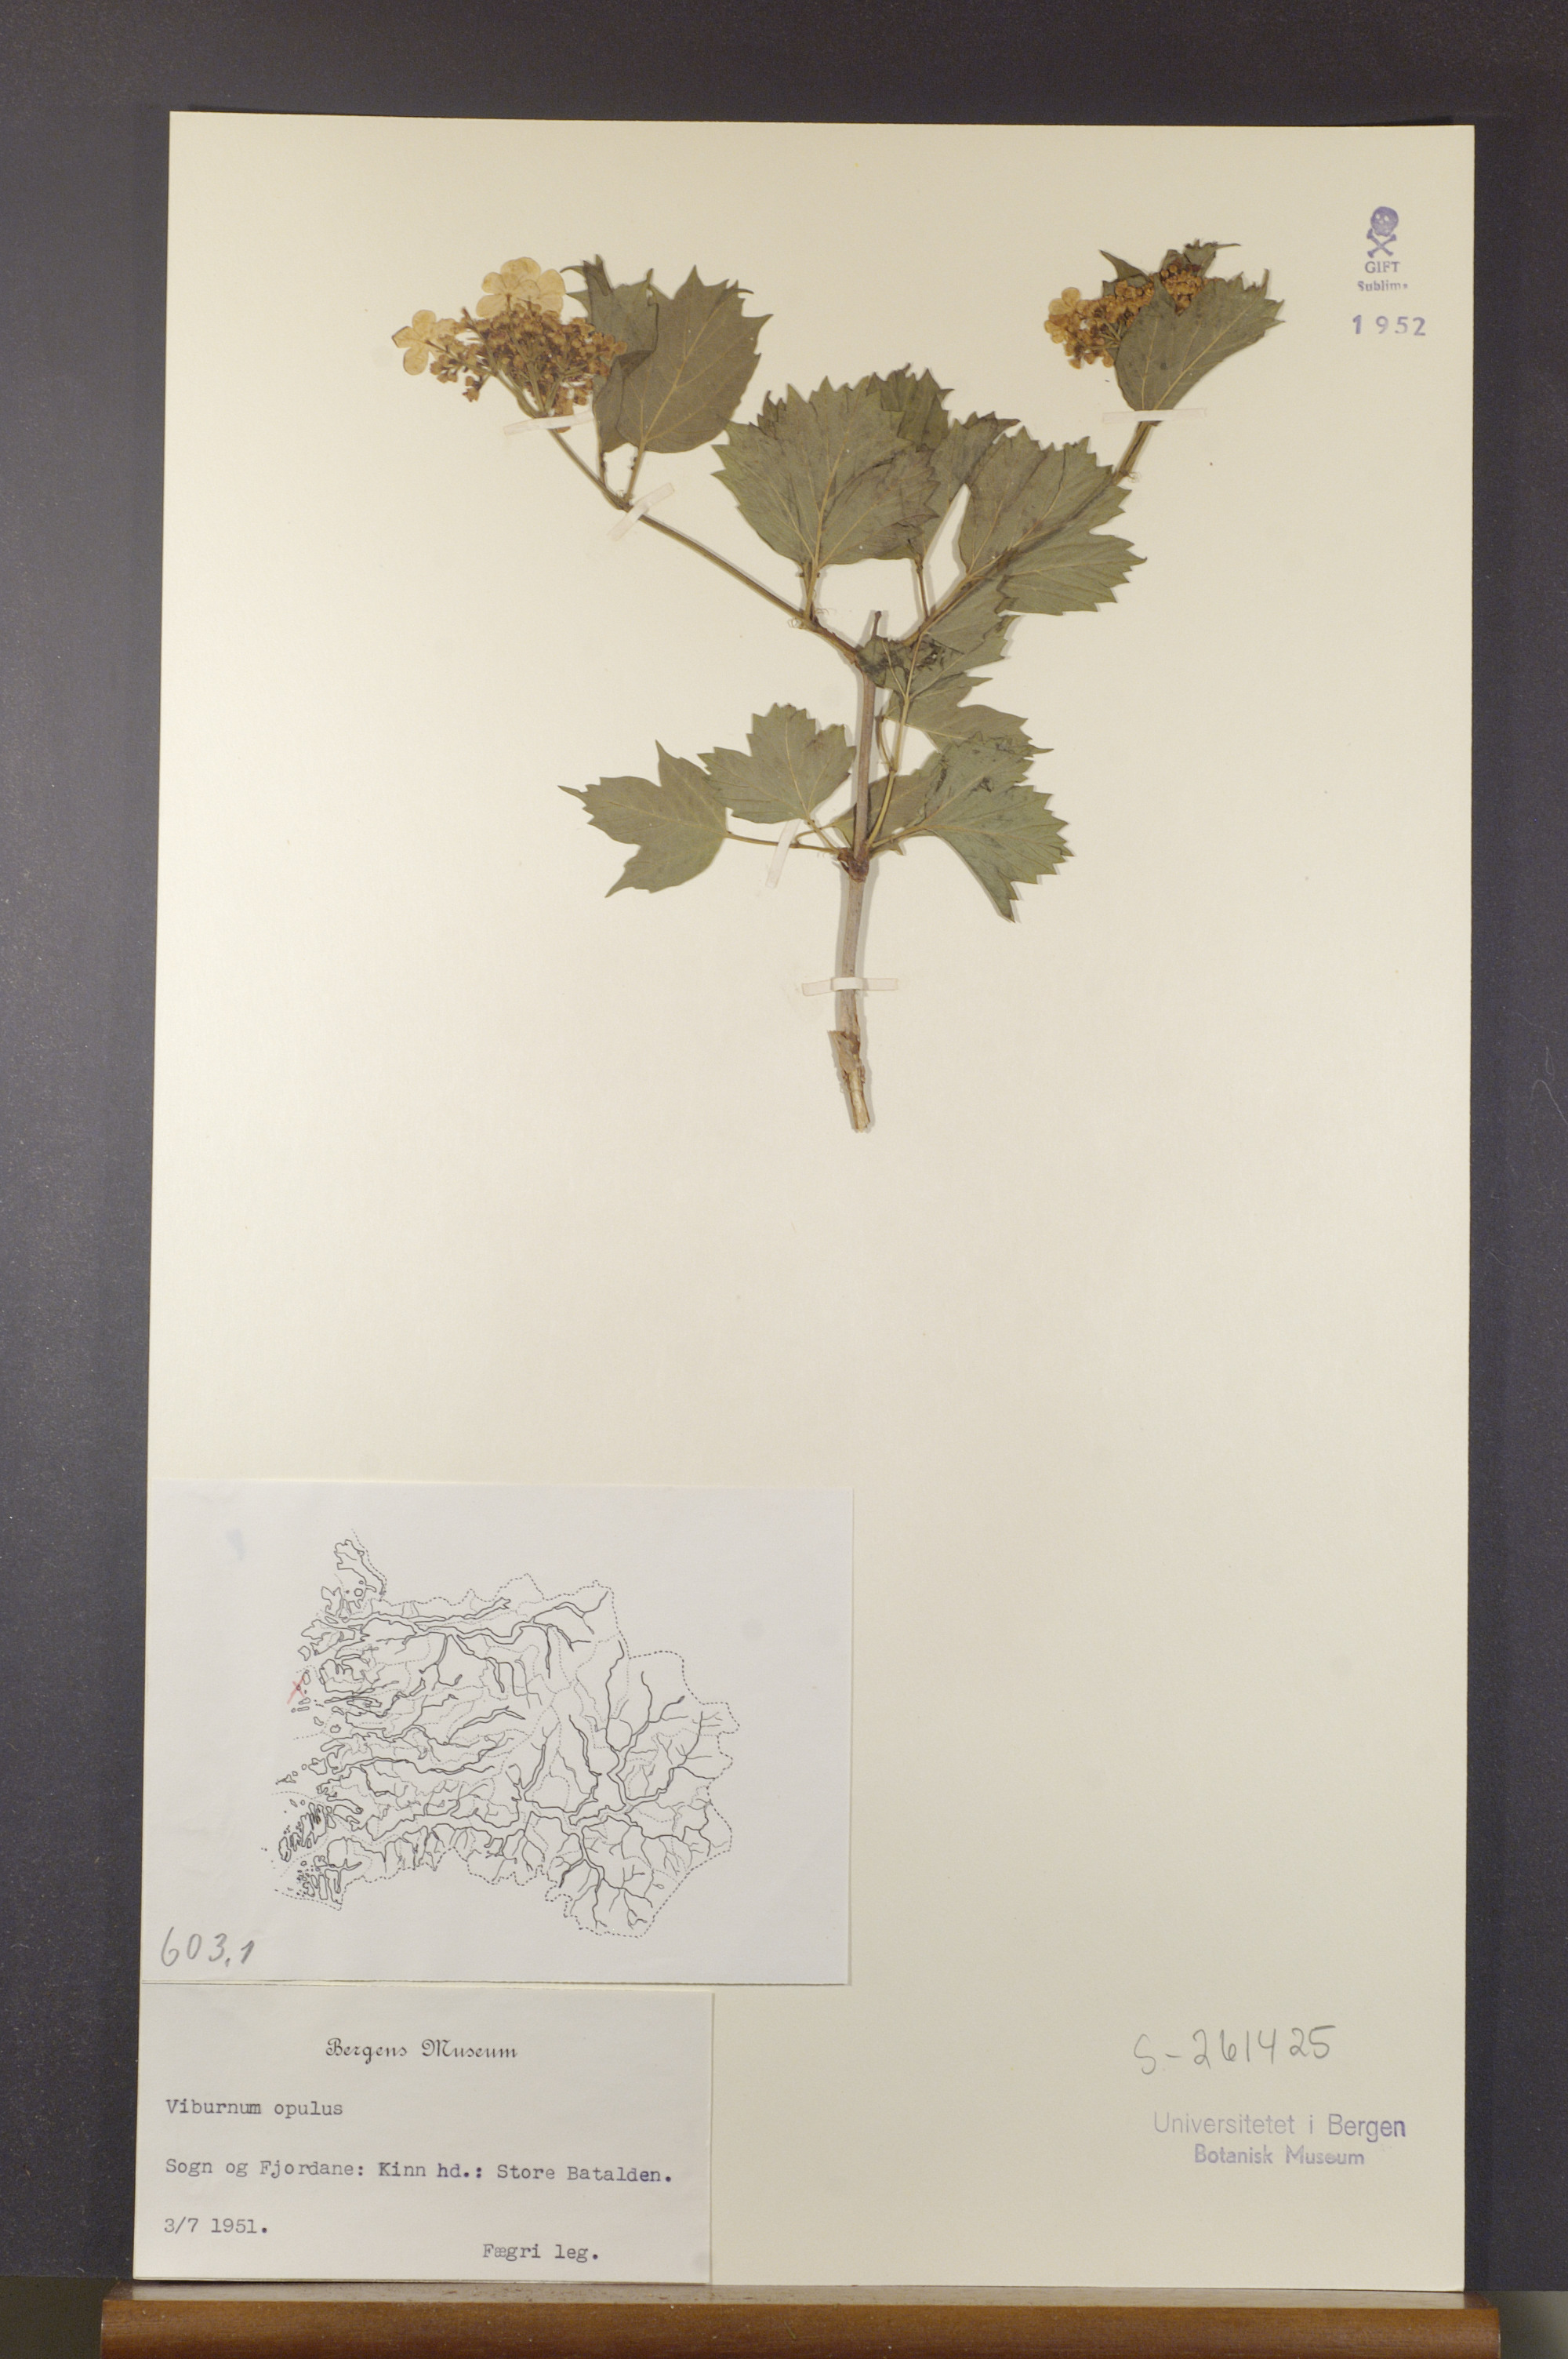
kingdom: Plantae
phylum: Tracheophyta
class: Magnoliopsida
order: Dipsacales
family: Viburnaceae
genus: Viburnum
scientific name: Viburnum opulus
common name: Guelder-rose
